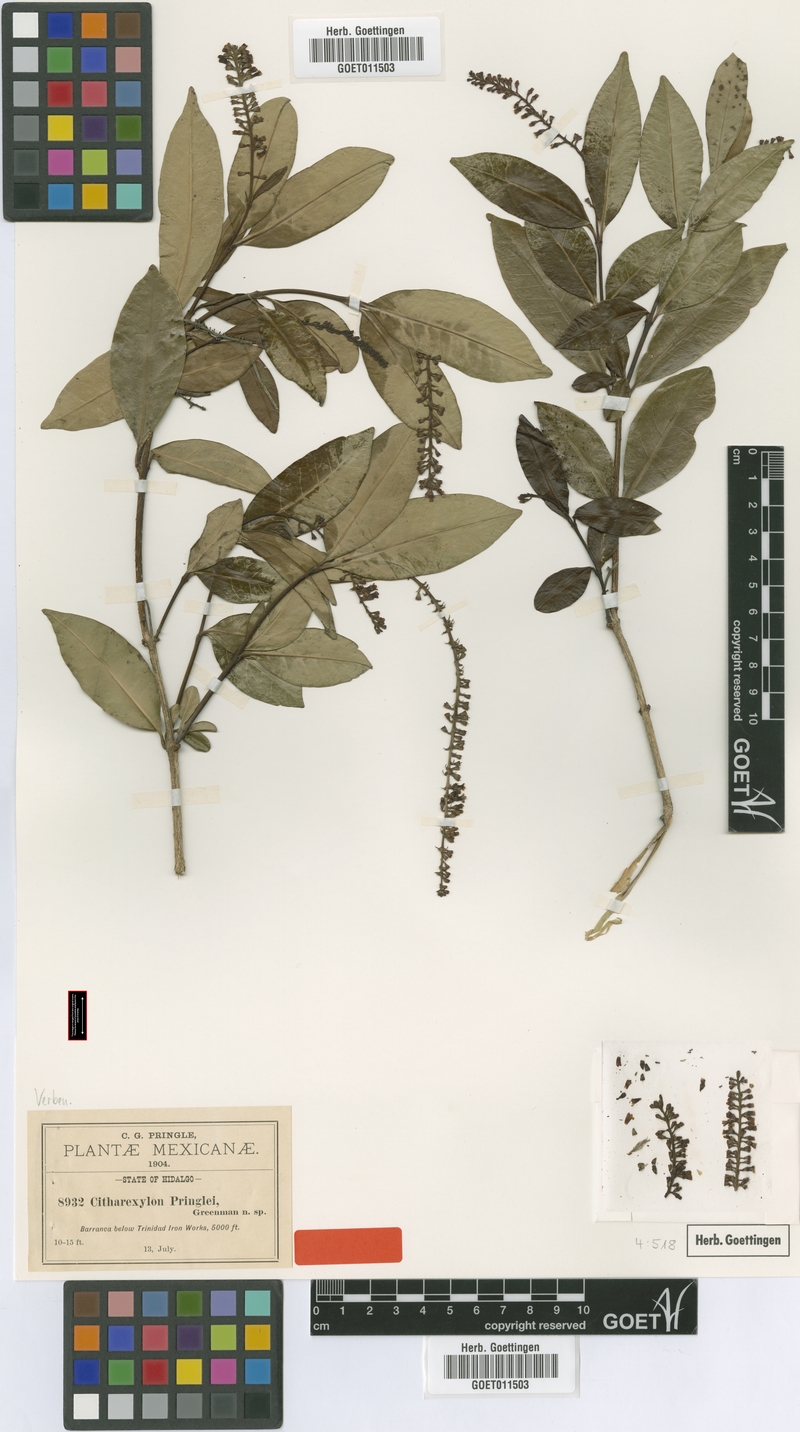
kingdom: Plantae
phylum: Tracheophyta
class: Magnoliopsida
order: Lamiales
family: Verbenaceae
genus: Citharexylum
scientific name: Citharexylum ligustrifolium
